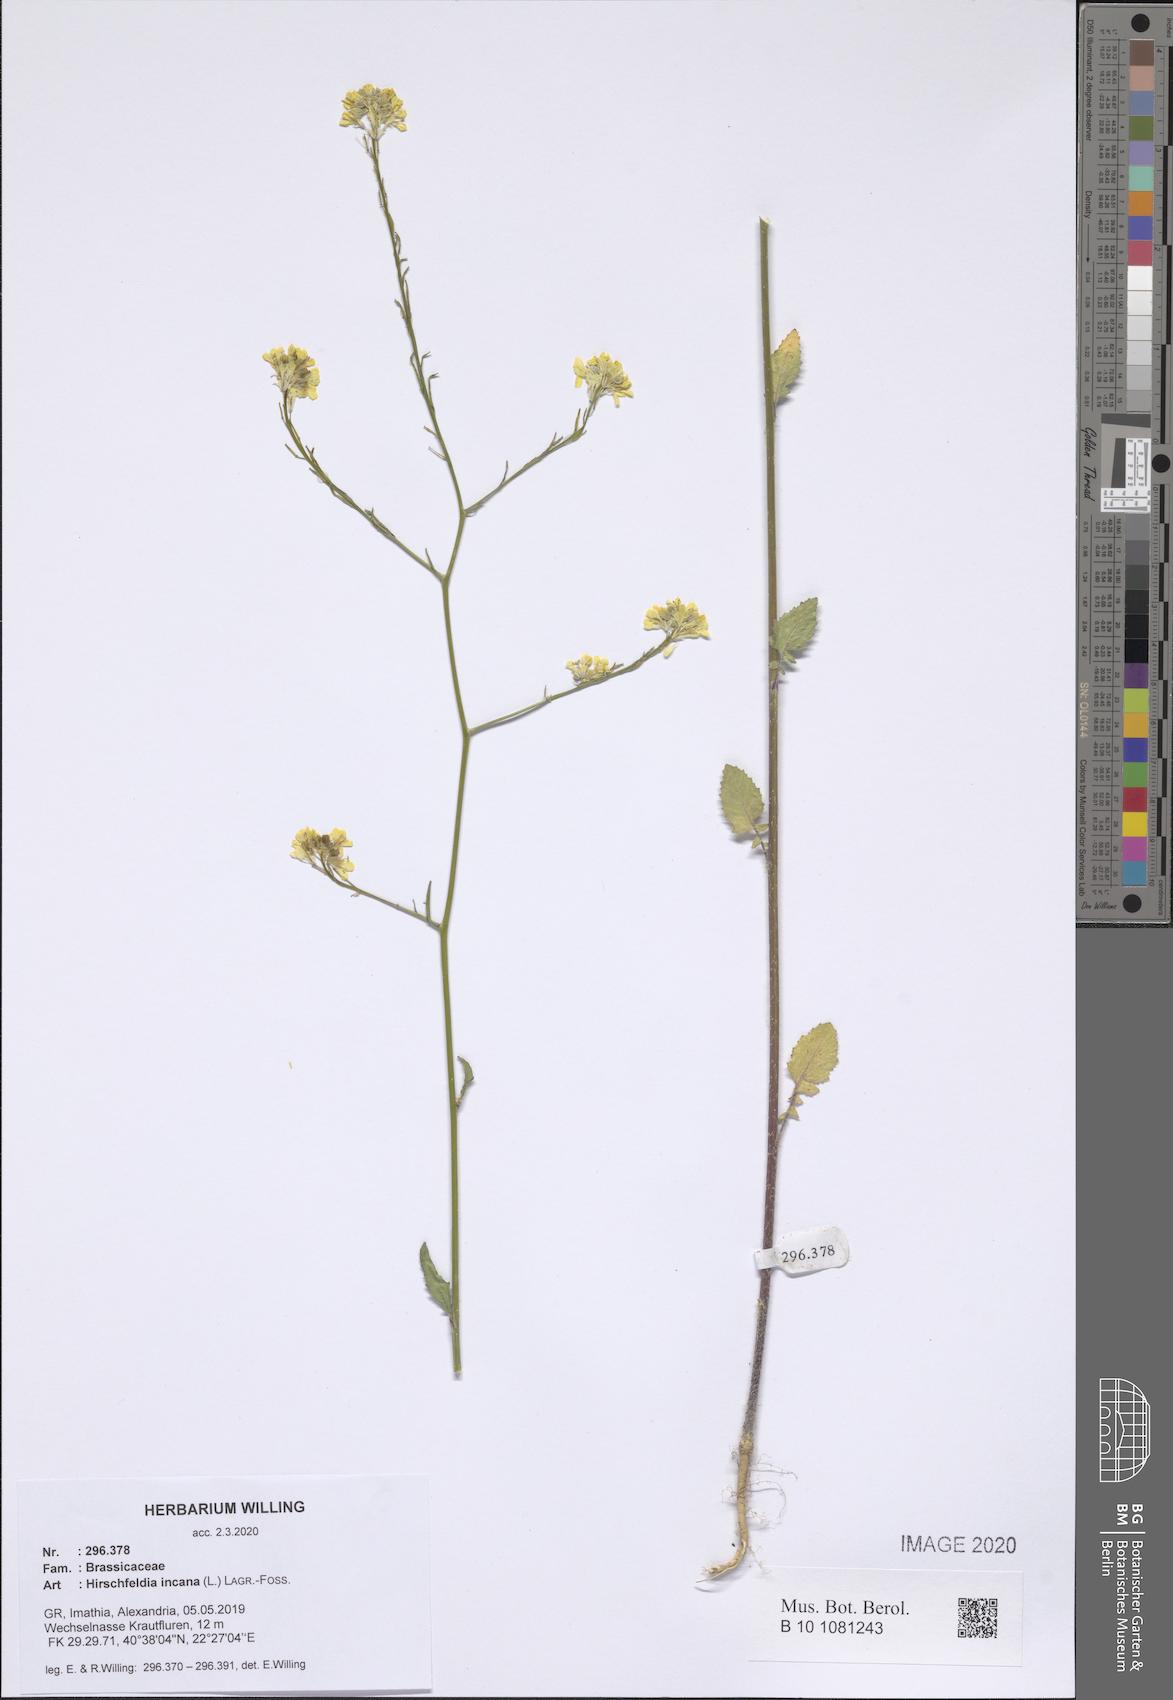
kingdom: Plantae
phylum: Tracheophyta
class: Magnoliopsida
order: Brassicales
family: Brassicaceae
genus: Hirschfeldia
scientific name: Hirschfeldia incana
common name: Hoary mustard
